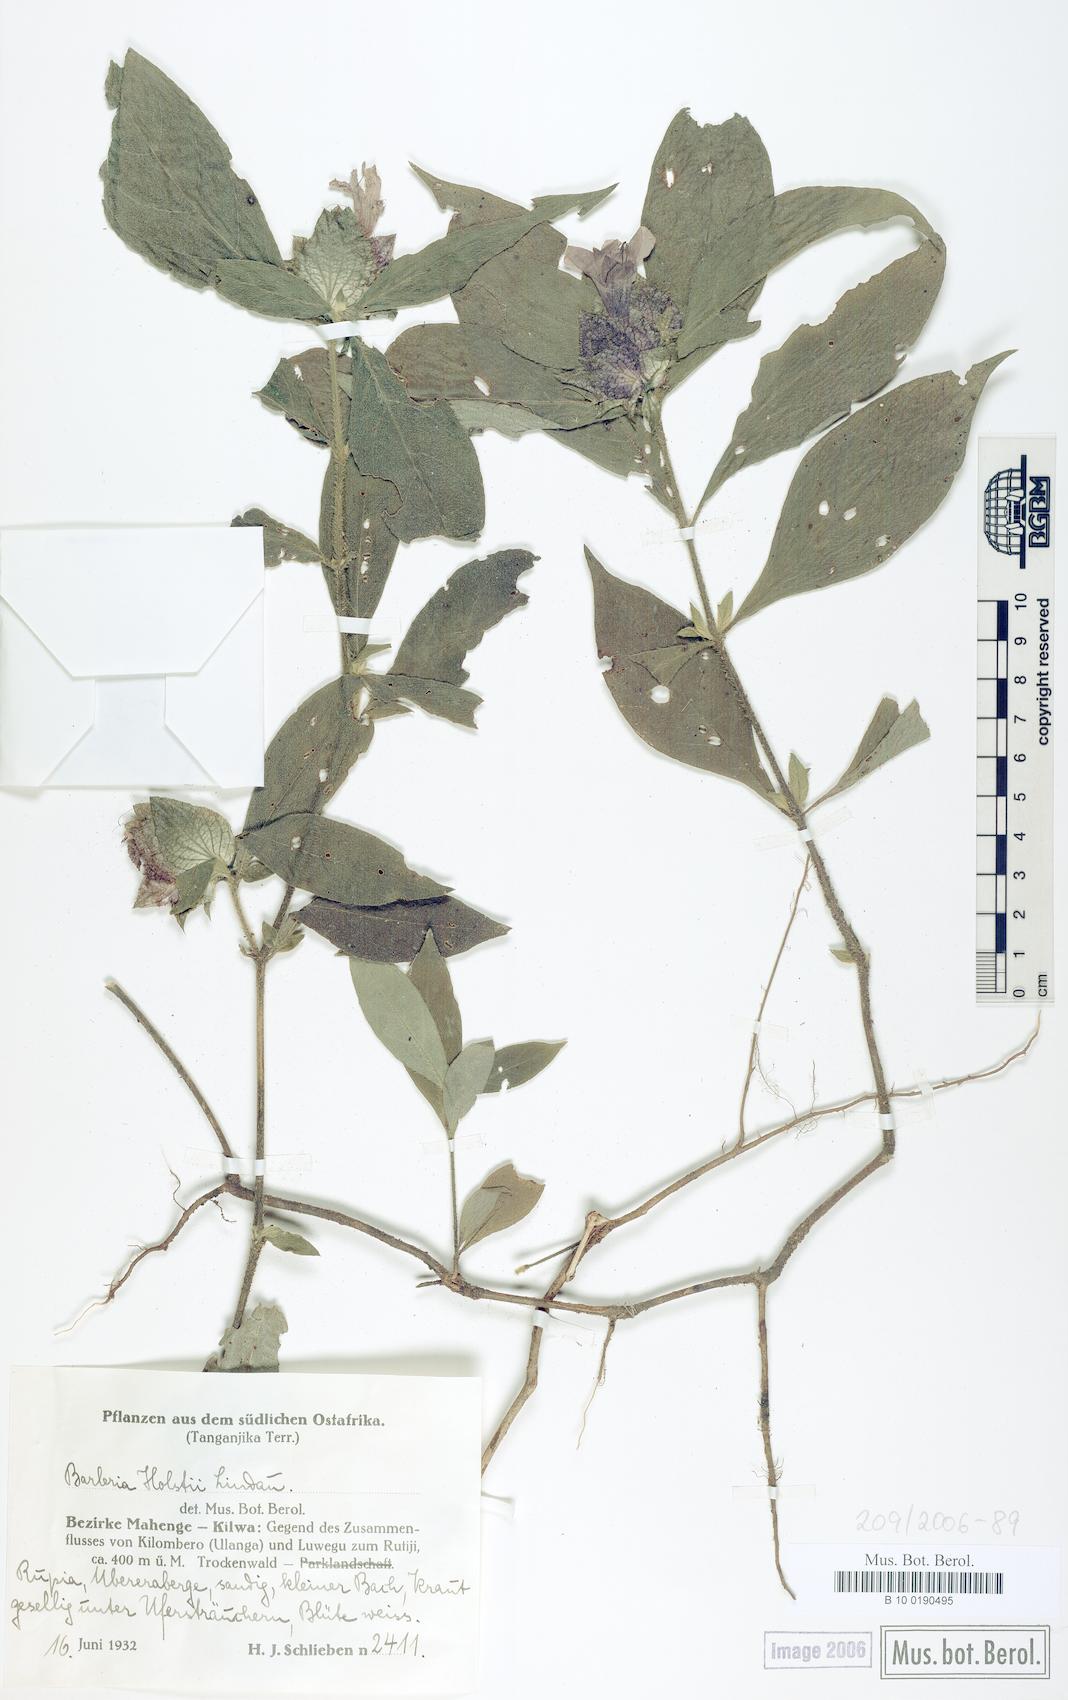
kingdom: Plantae
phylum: Tracheophyta
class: Magnoliopsida
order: Lamiales
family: Acanthaceae
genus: Barleria
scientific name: Barleria holstii
